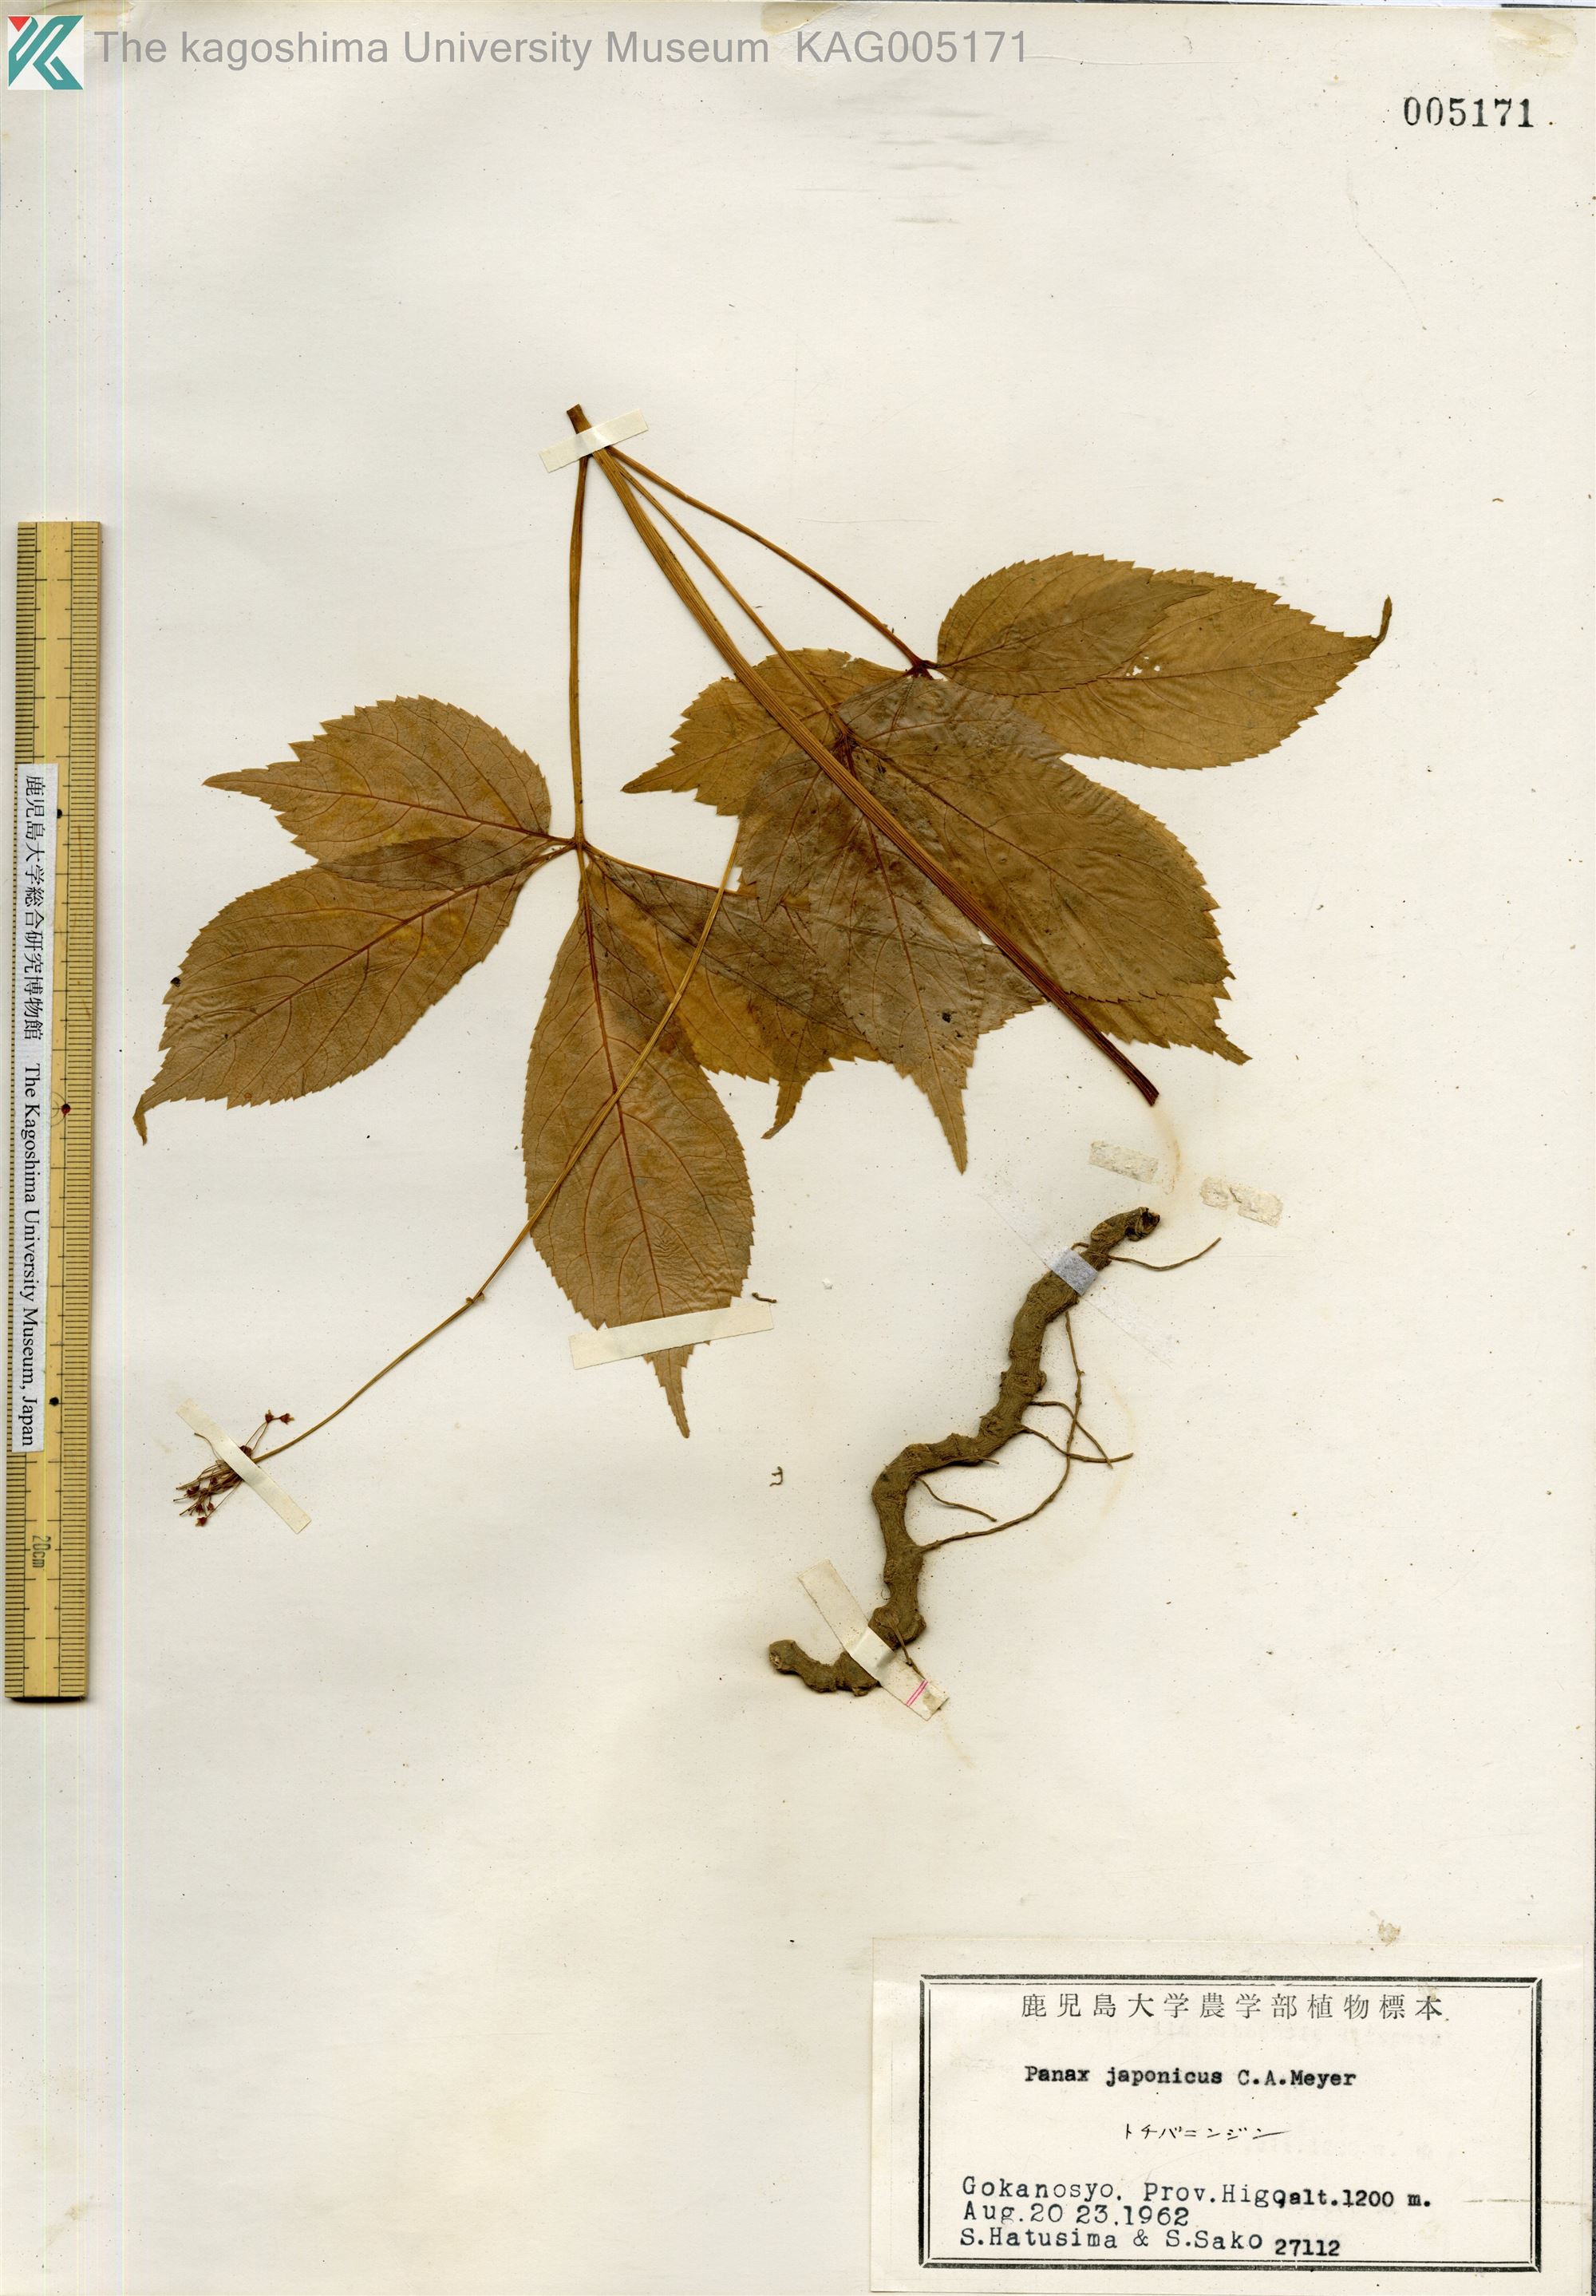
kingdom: Plantae
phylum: Tracheophyta
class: Magnoliopsida
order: Apiales
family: Araliaceae
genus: Panax
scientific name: Panax japonicus
